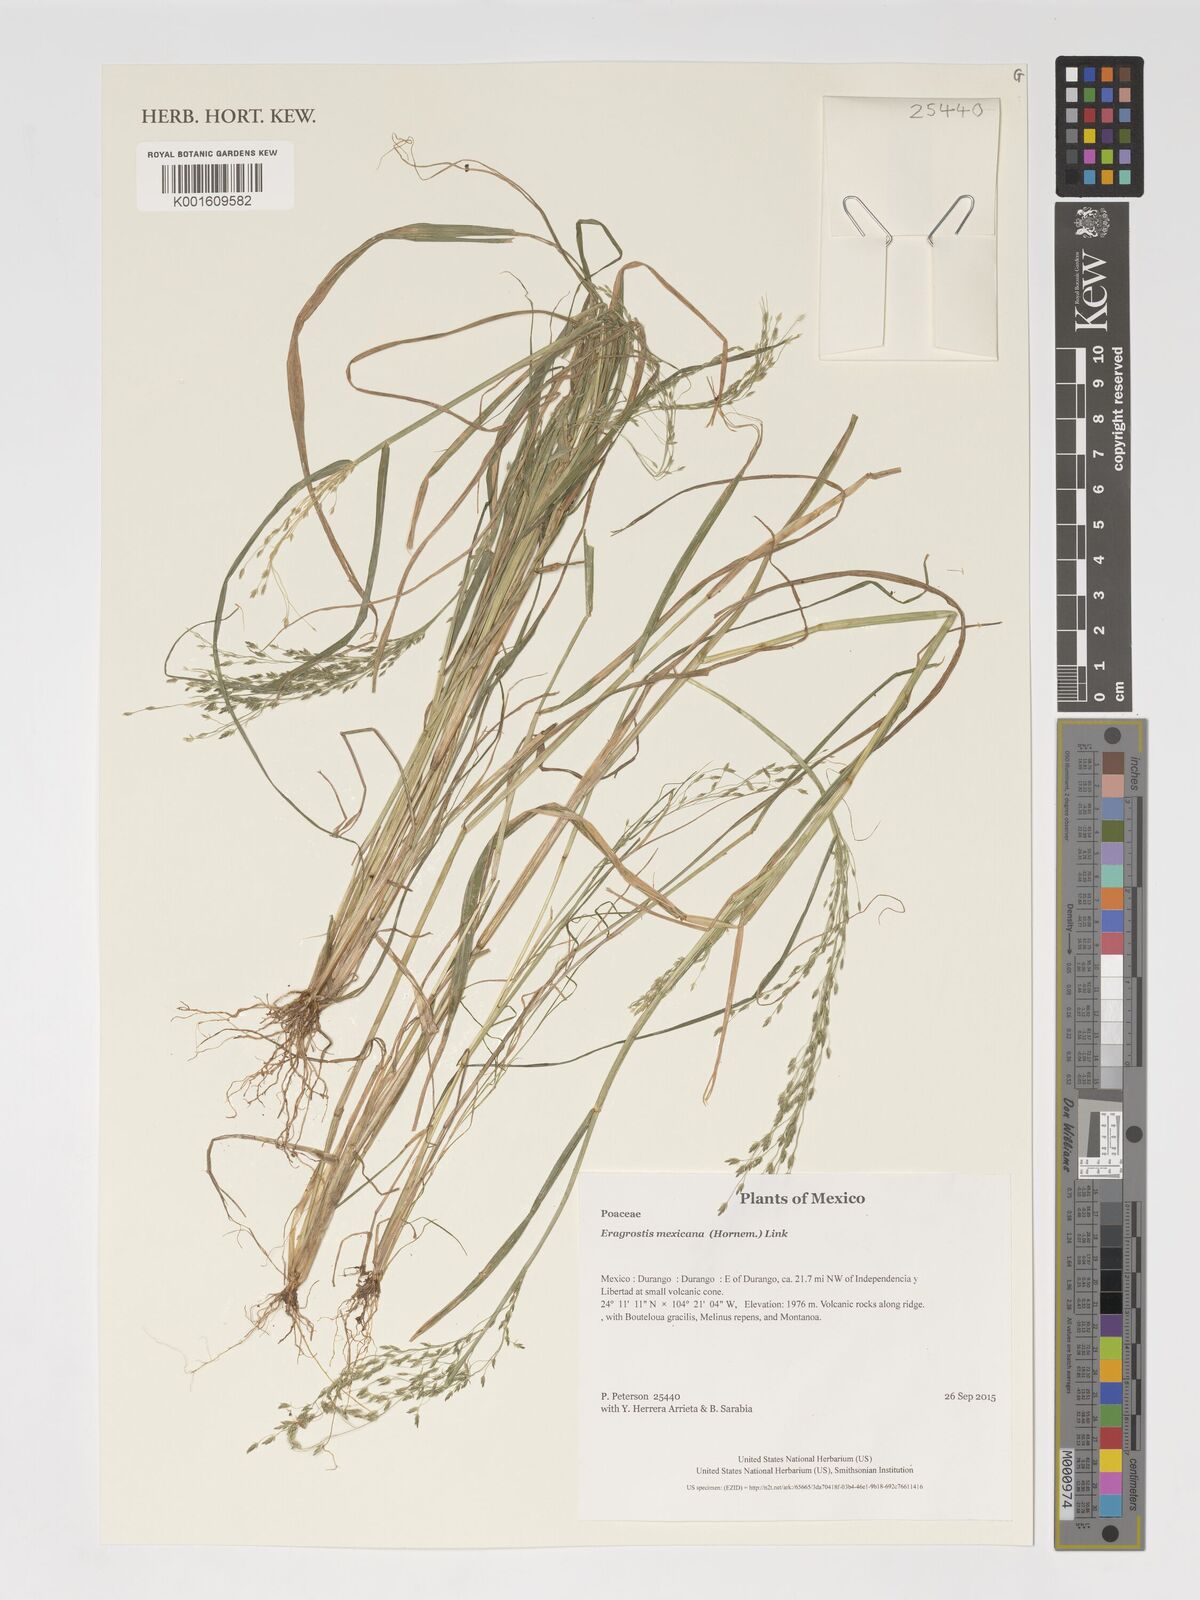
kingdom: Plantae
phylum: Tracheophyta
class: Liliopsida
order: Poales
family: Poaceae
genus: Eragrostis
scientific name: Eragrostis mexicana
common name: Mexican love grass
